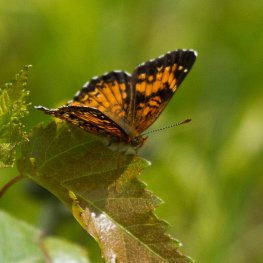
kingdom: Animalia
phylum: Arthropoda
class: Insecta
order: Lepidoptera
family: Nymphalidae
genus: Chlosyne
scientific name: Chlosyne harrisii
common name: Harris's Checkerspot
